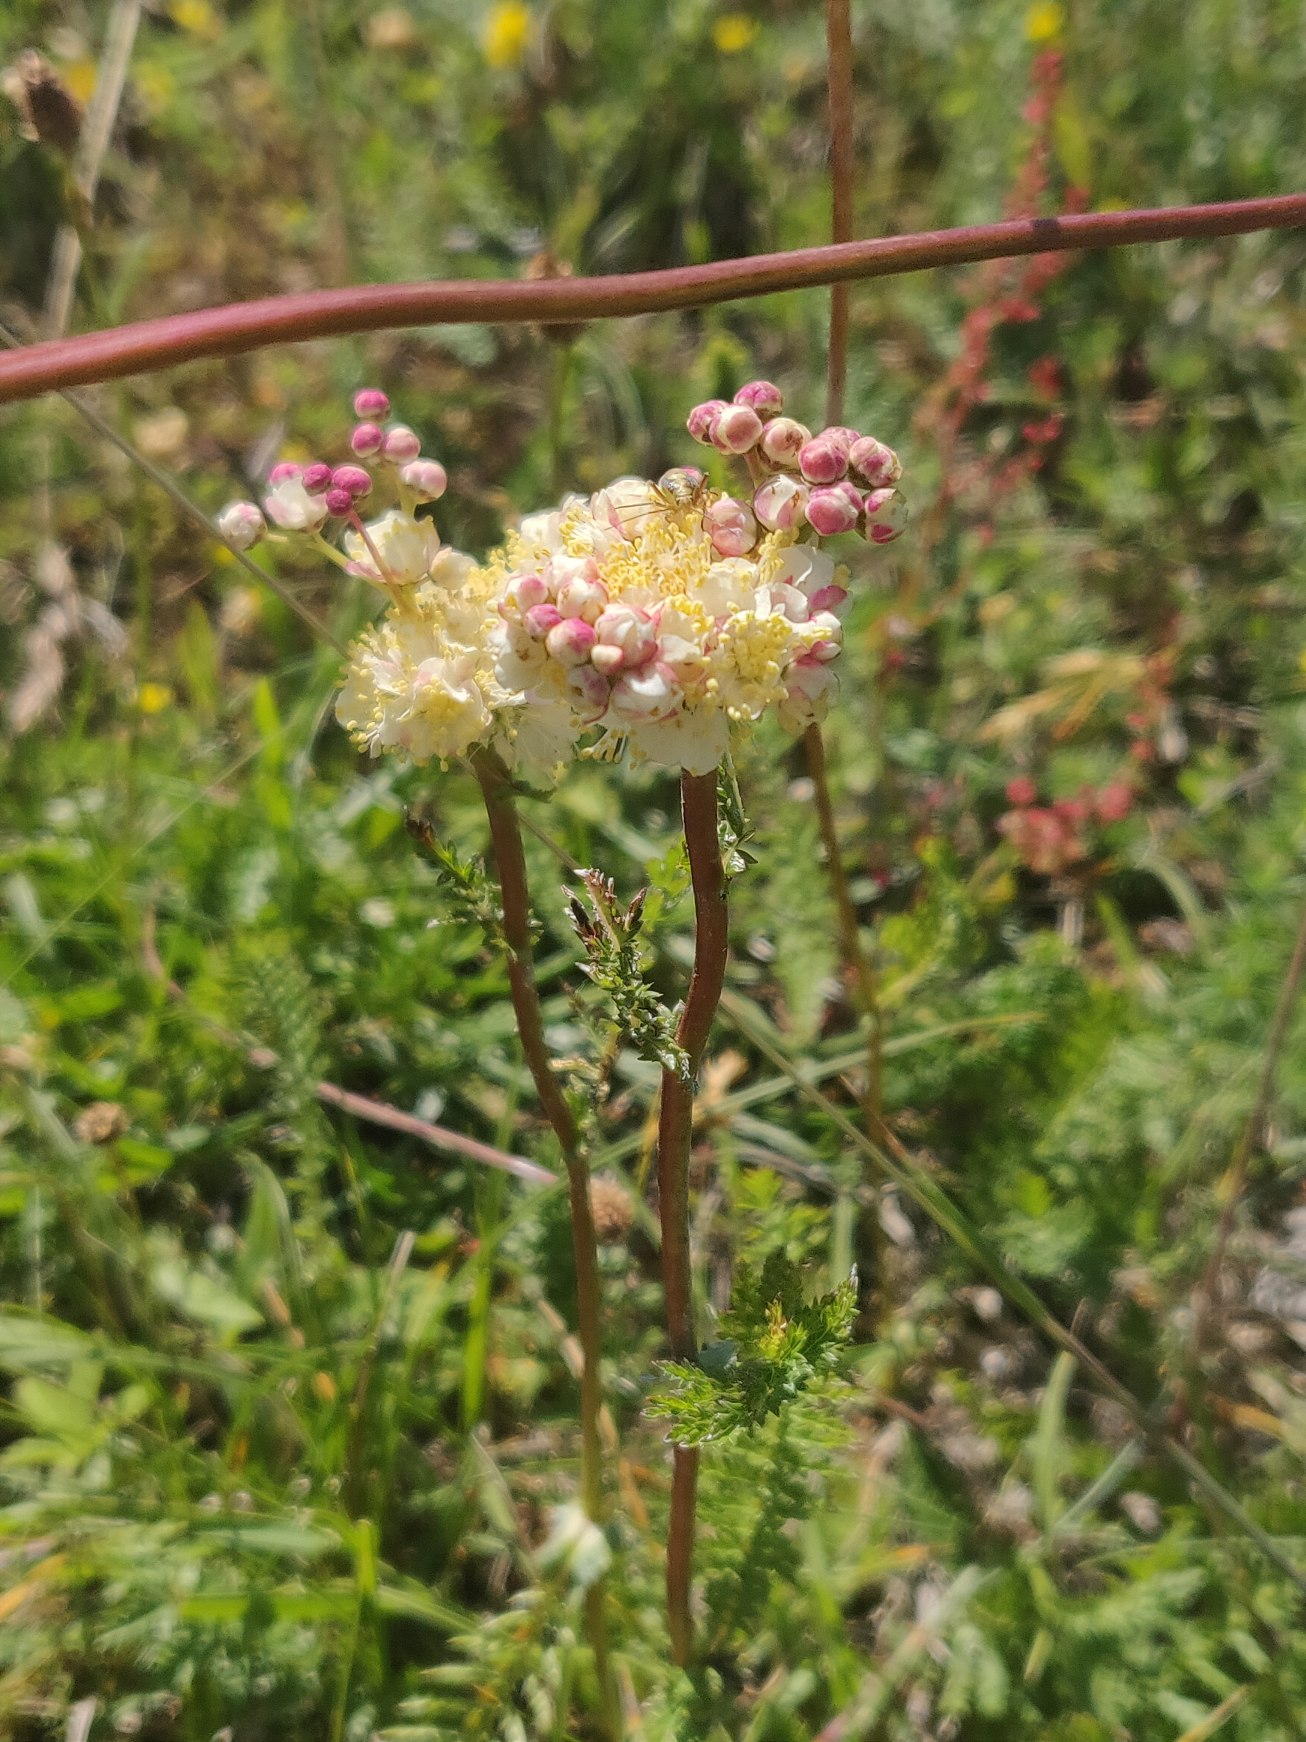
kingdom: Plantae
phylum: Tracheophyta
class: Magnoliopsida
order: Rosales
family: Rosaceae
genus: Filipendula
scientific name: Filipendula vulgaris
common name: Knoldet mjødurt
